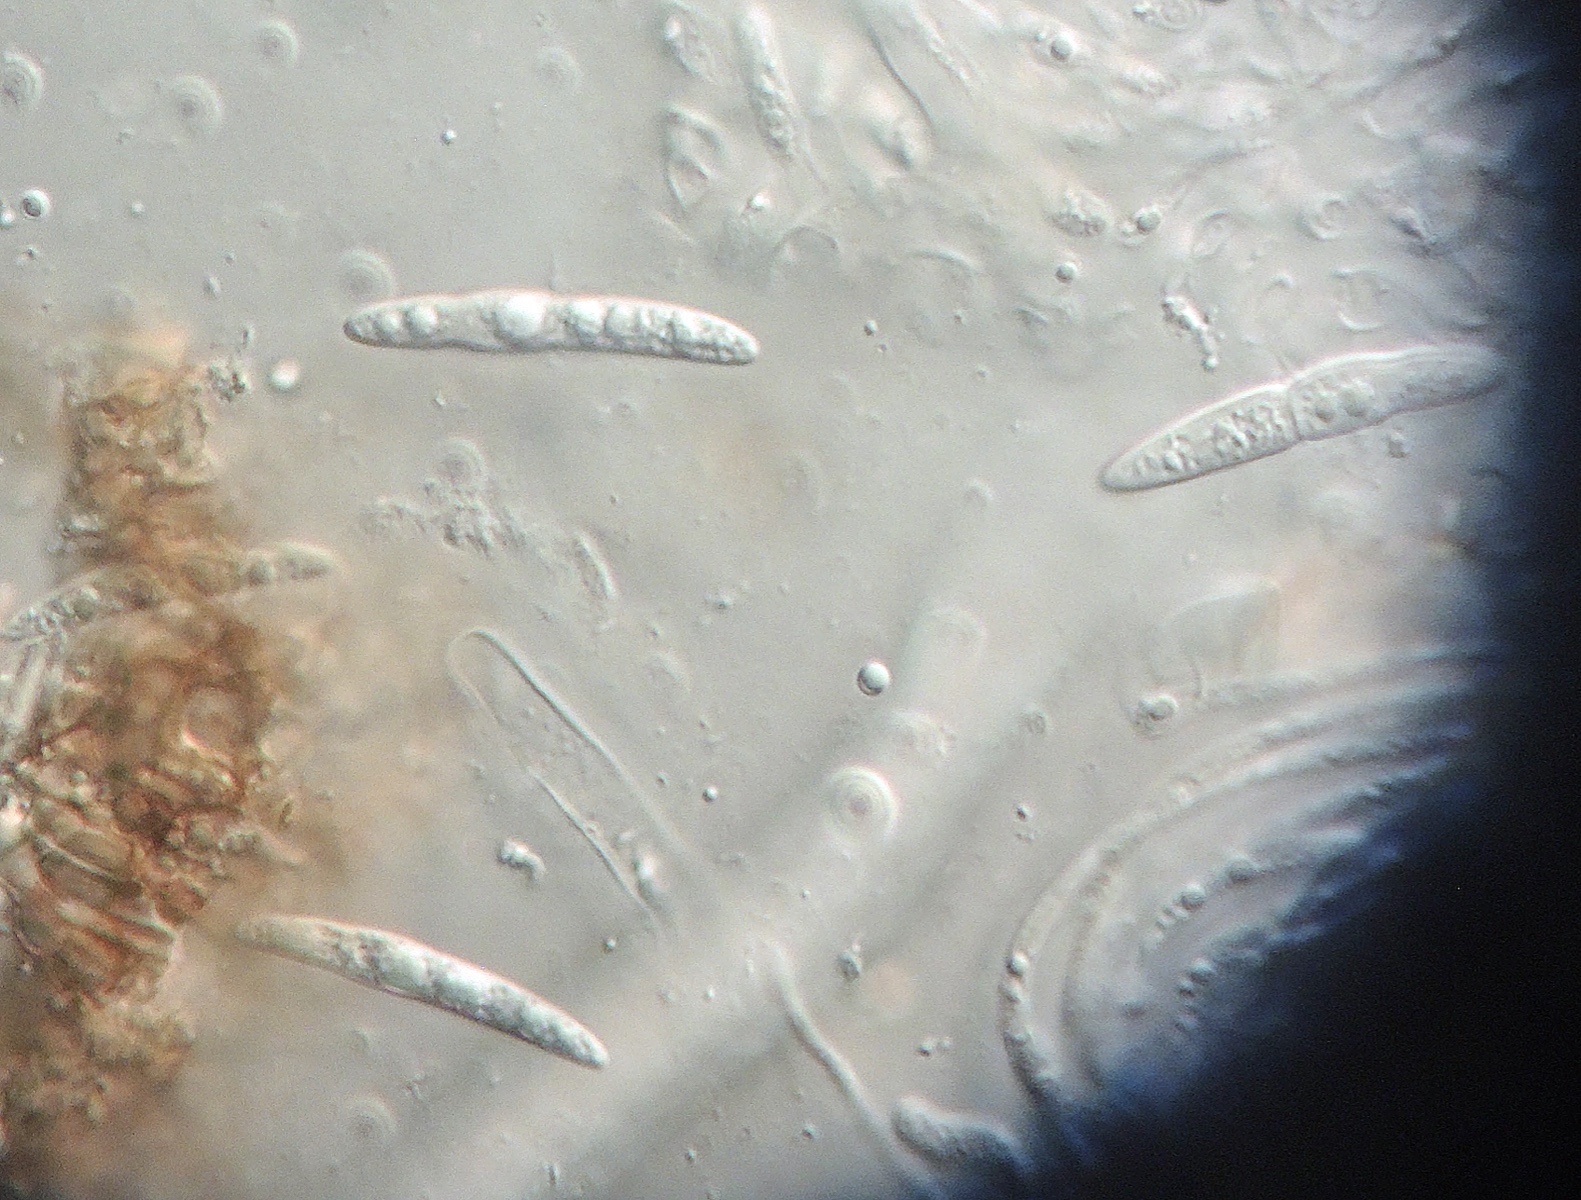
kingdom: Fungi
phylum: Ascomycota
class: Dothideomycetes
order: Pleosporales
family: Lophiostomataceae
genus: Lophiostoma
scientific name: Lophiostoma aquaticum
